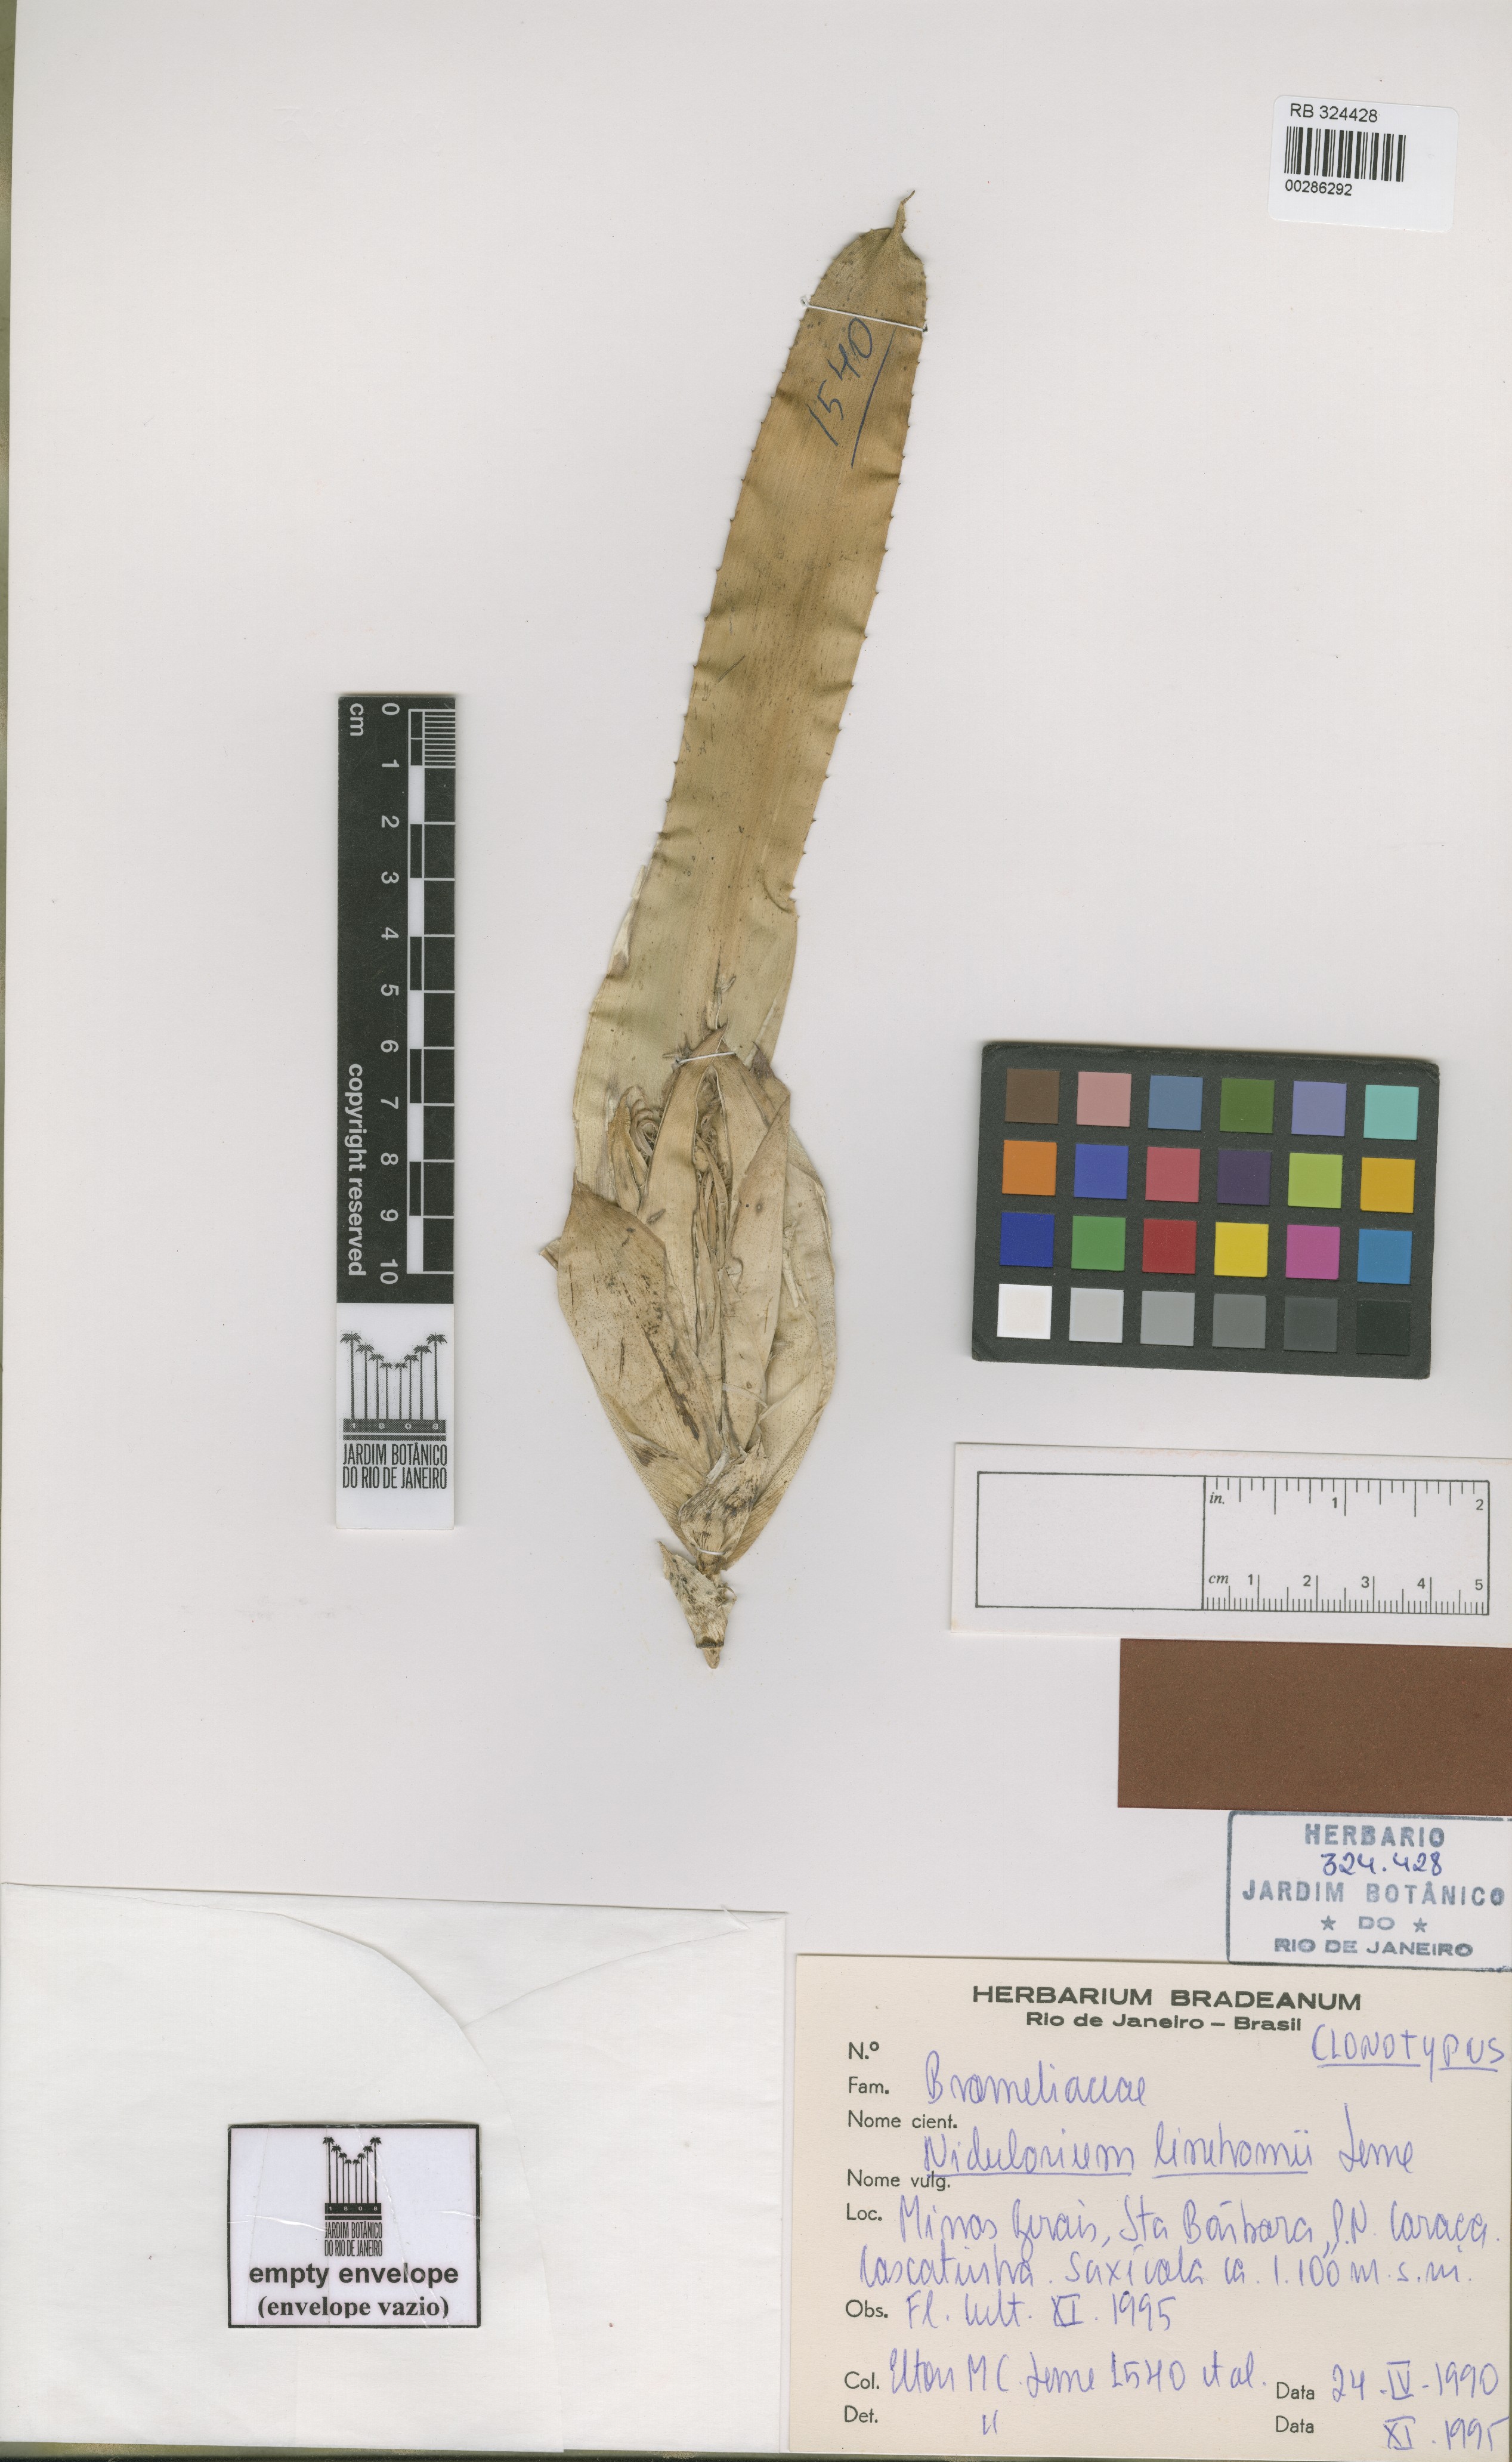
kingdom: Plantae
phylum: Tracheophyta
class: Liliopsida
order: Poales
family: Bromeliaceae
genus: Nidularium
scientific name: Nidularium linehamii
